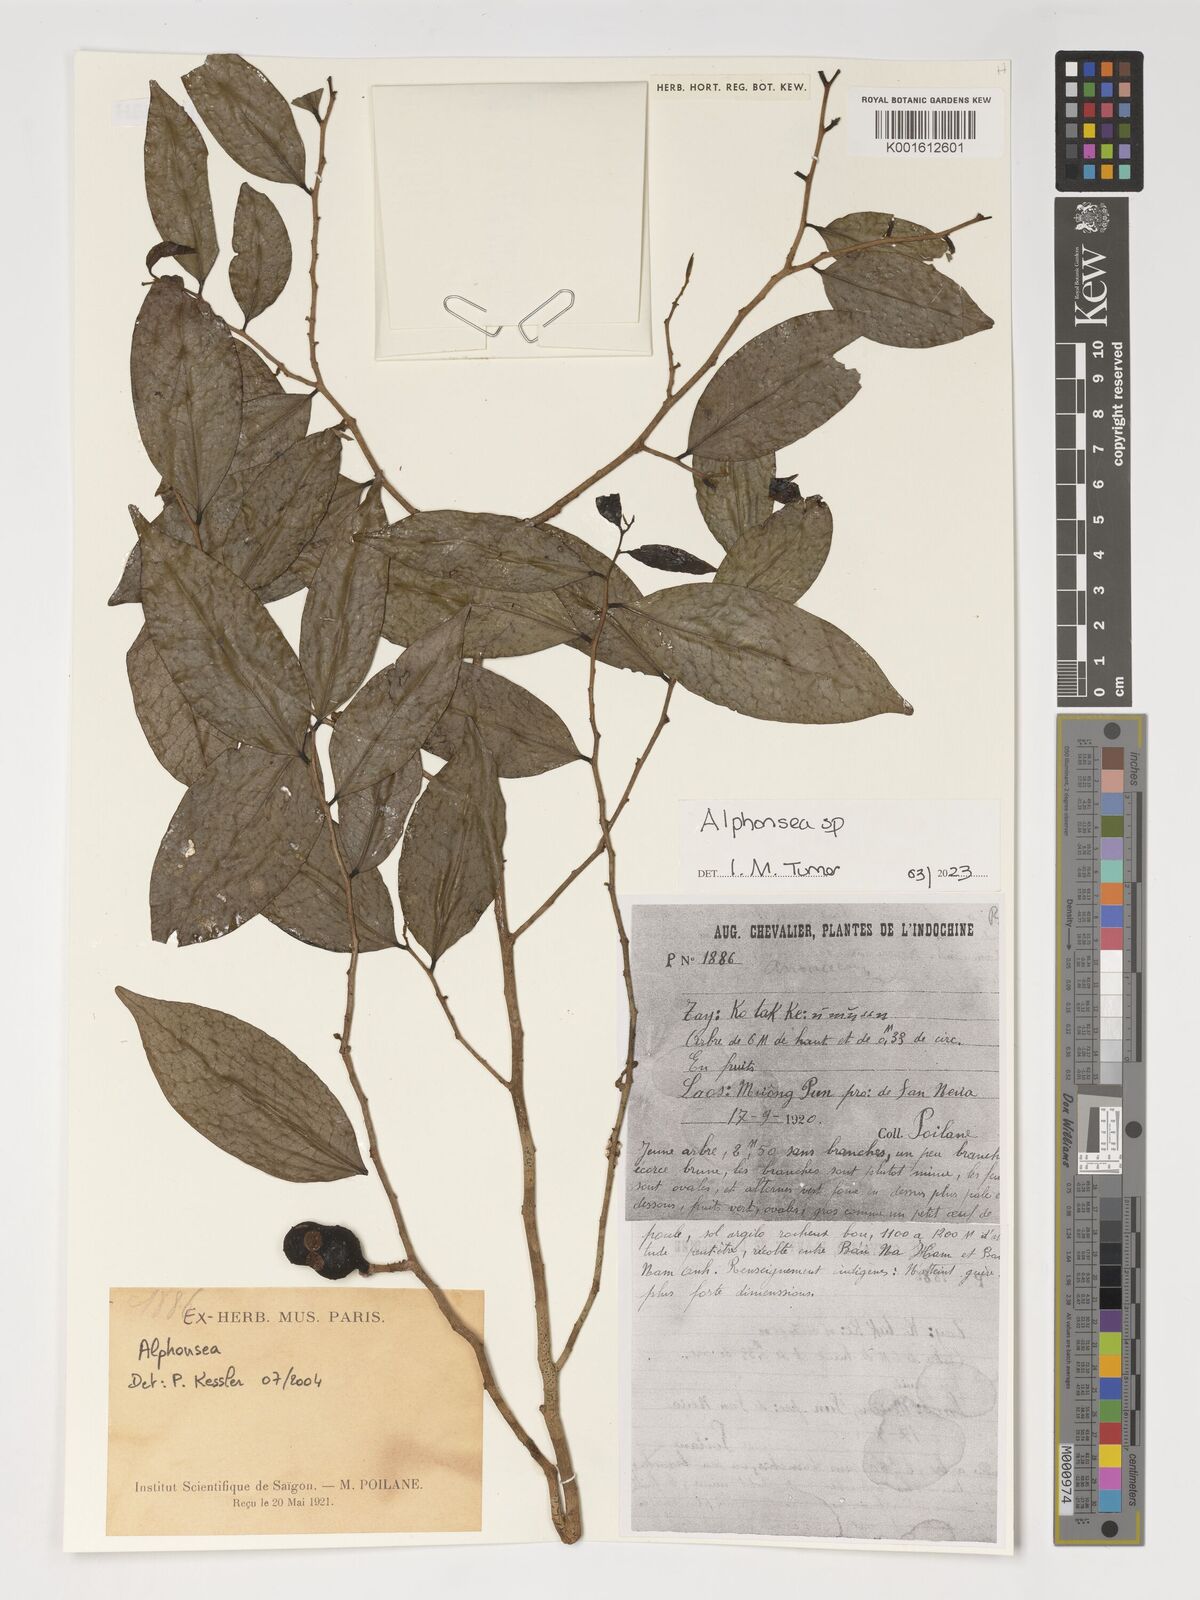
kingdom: Plantae
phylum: Tracheophyta
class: Magnoliopsida
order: Magnoliales
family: Annonaceae
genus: Alphonsea
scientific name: Alphonsea
